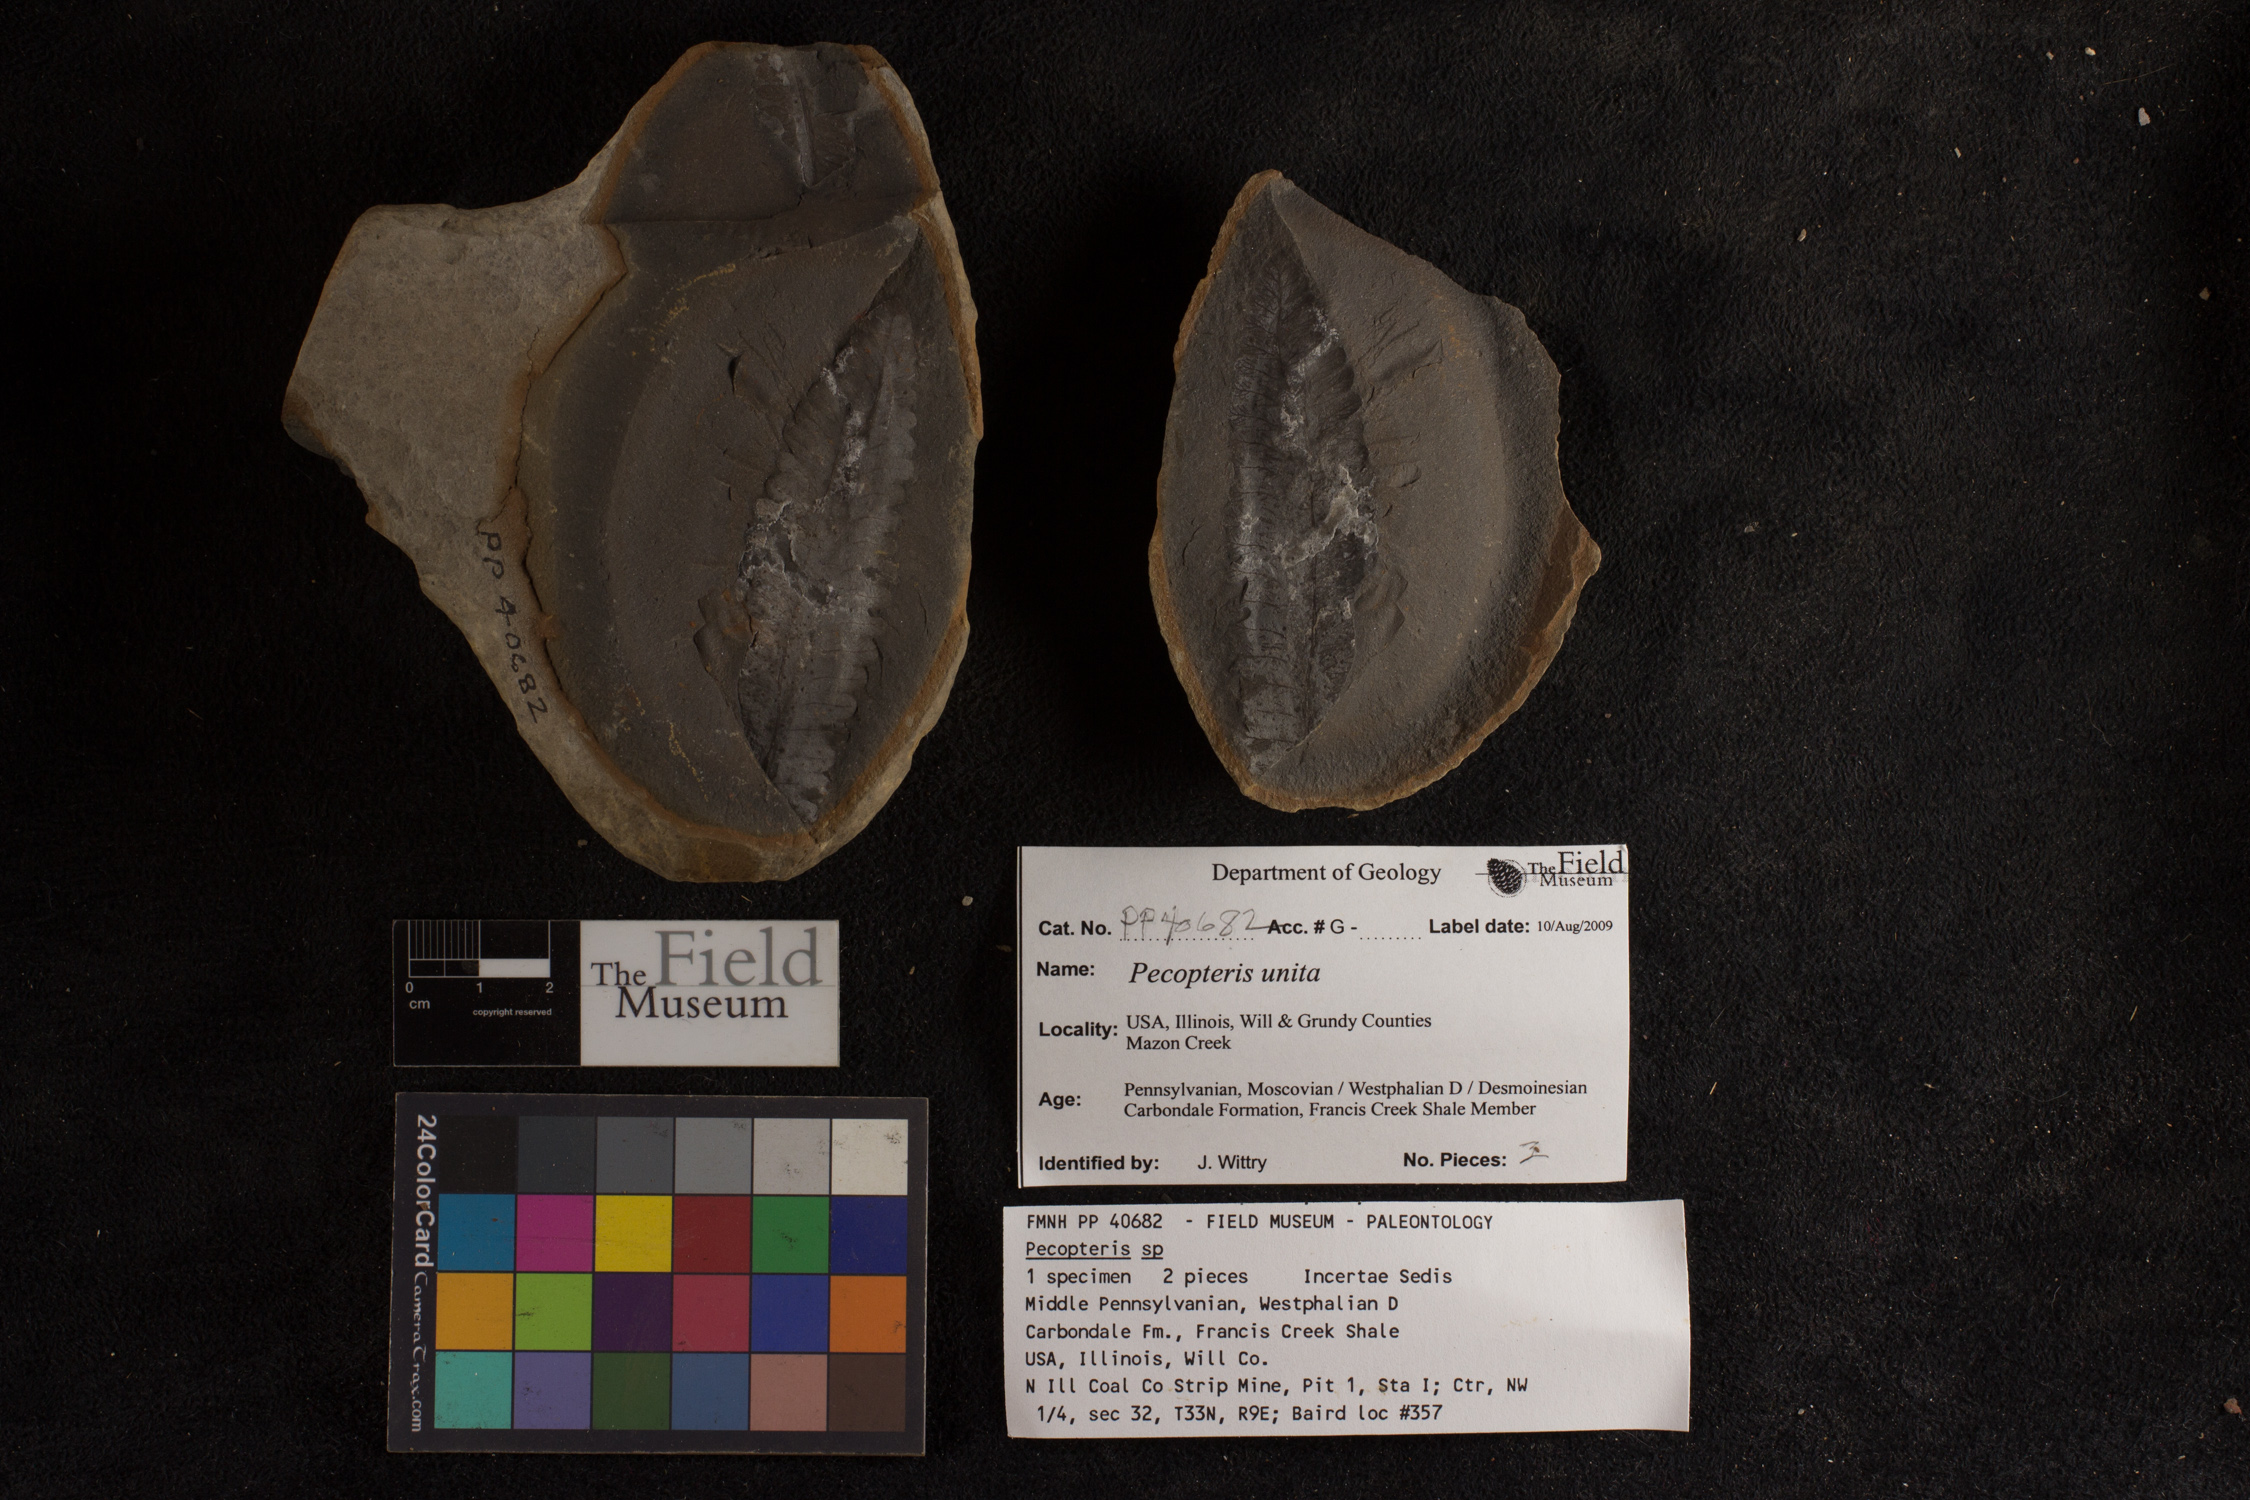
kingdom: Plantae
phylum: Tracheophyta
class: Polypodiopsida
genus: Diplazites
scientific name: Diplazites
